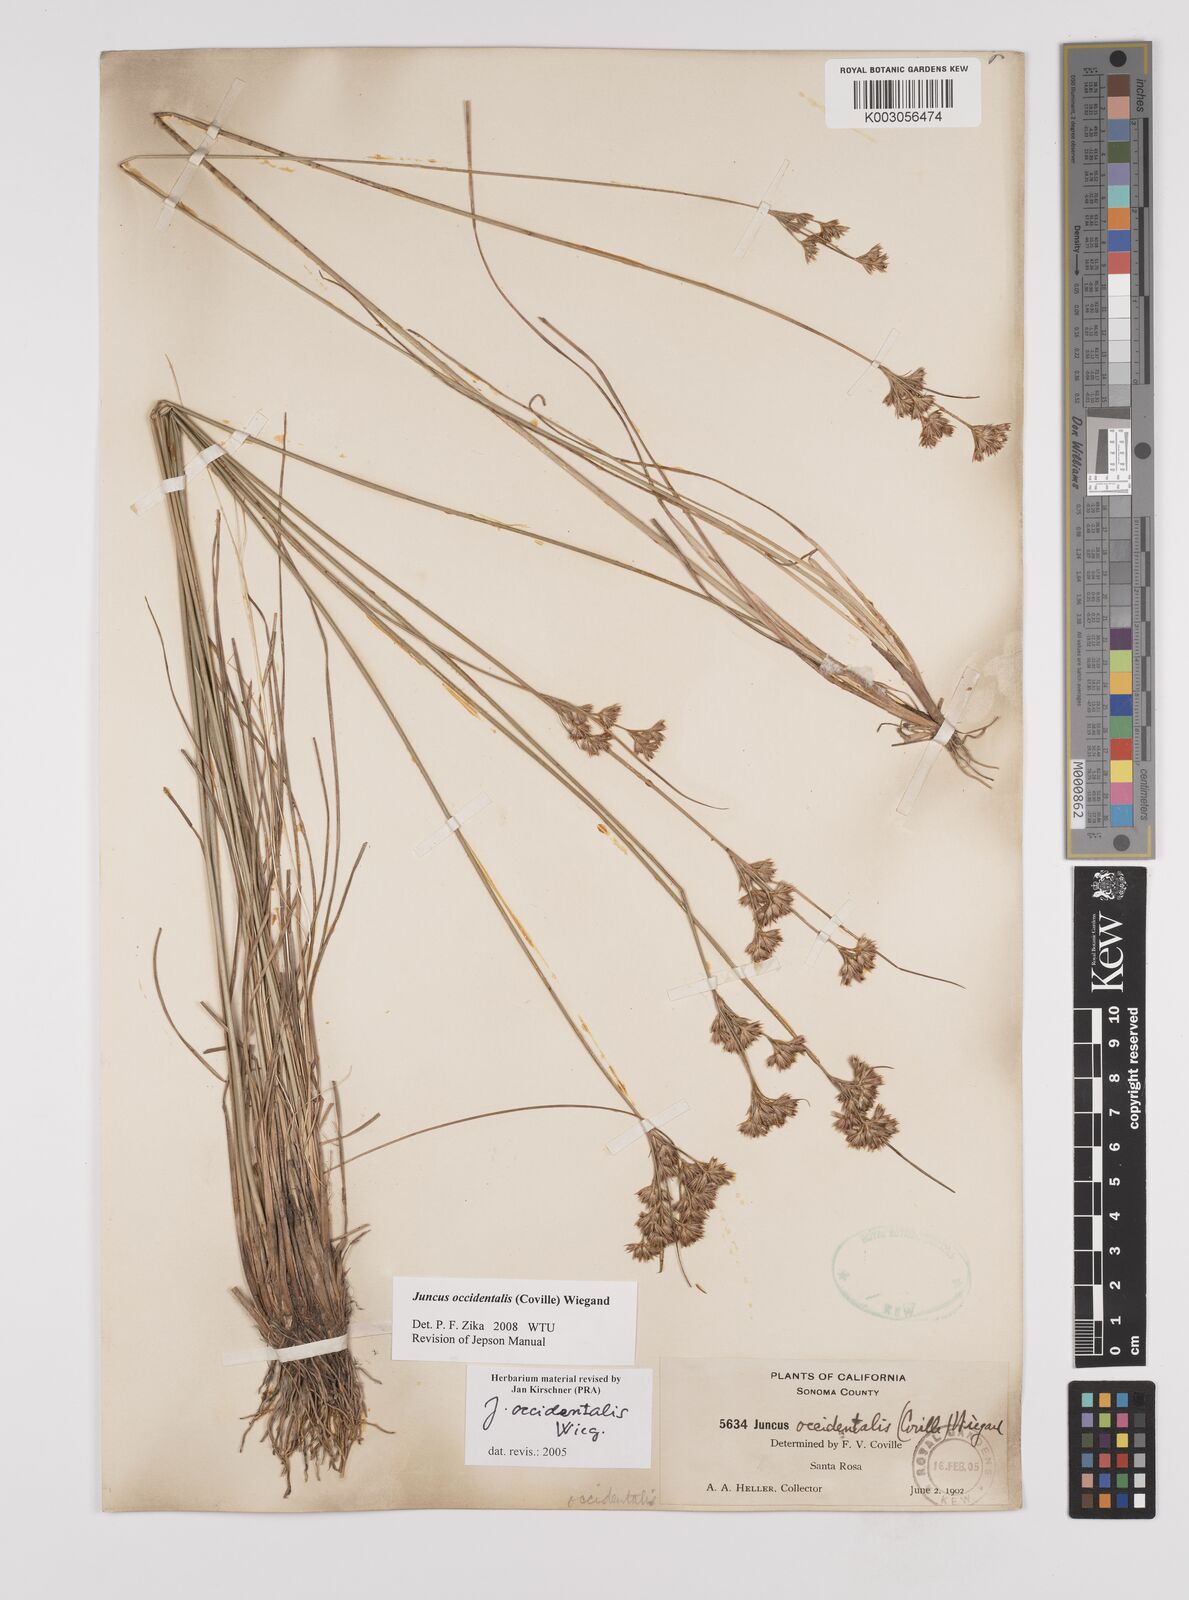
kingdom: Plantae
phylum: Tracheophyta
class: Liliopsida
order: Poales
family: Juncaceae
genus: Juncus
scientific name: Juncus occidentalis
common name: Western rush
